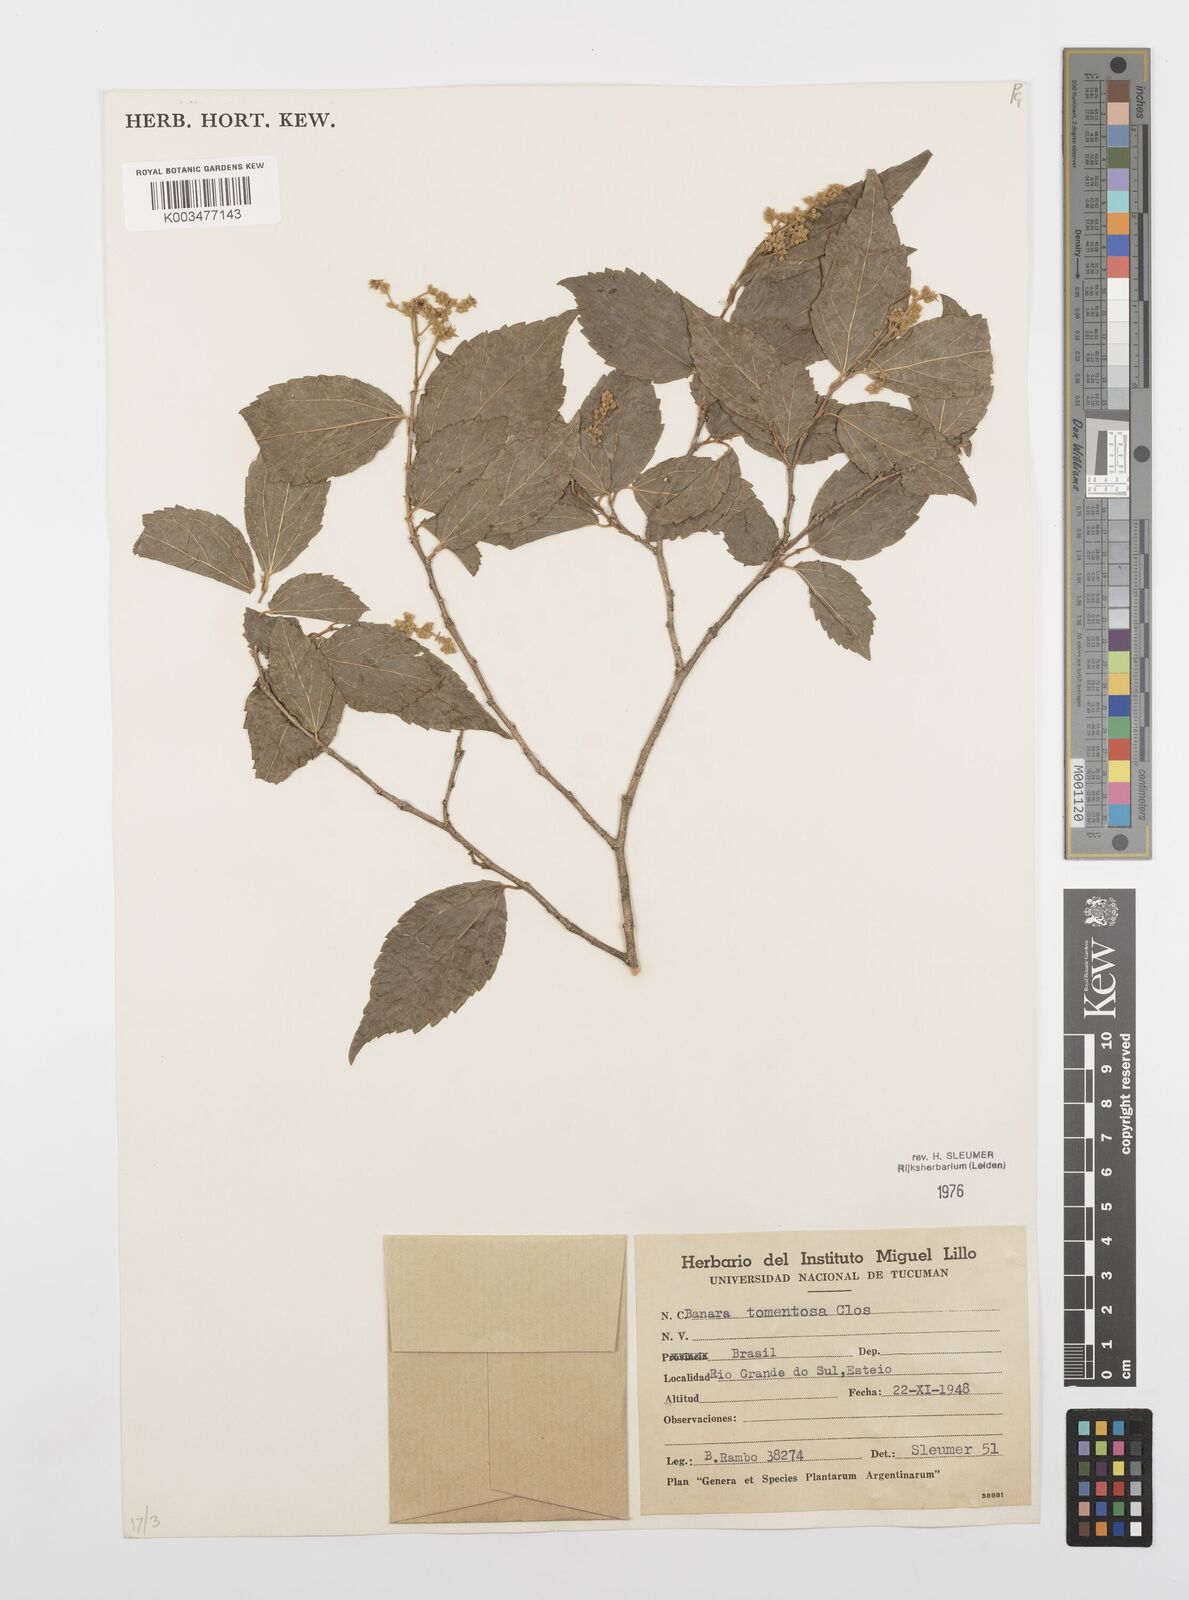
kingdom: Plantae
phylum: Tracheophyta
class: Magnoliopsida
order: Malpighiales
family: Salicaceae
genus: Banara
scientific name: Banara tomentosa
